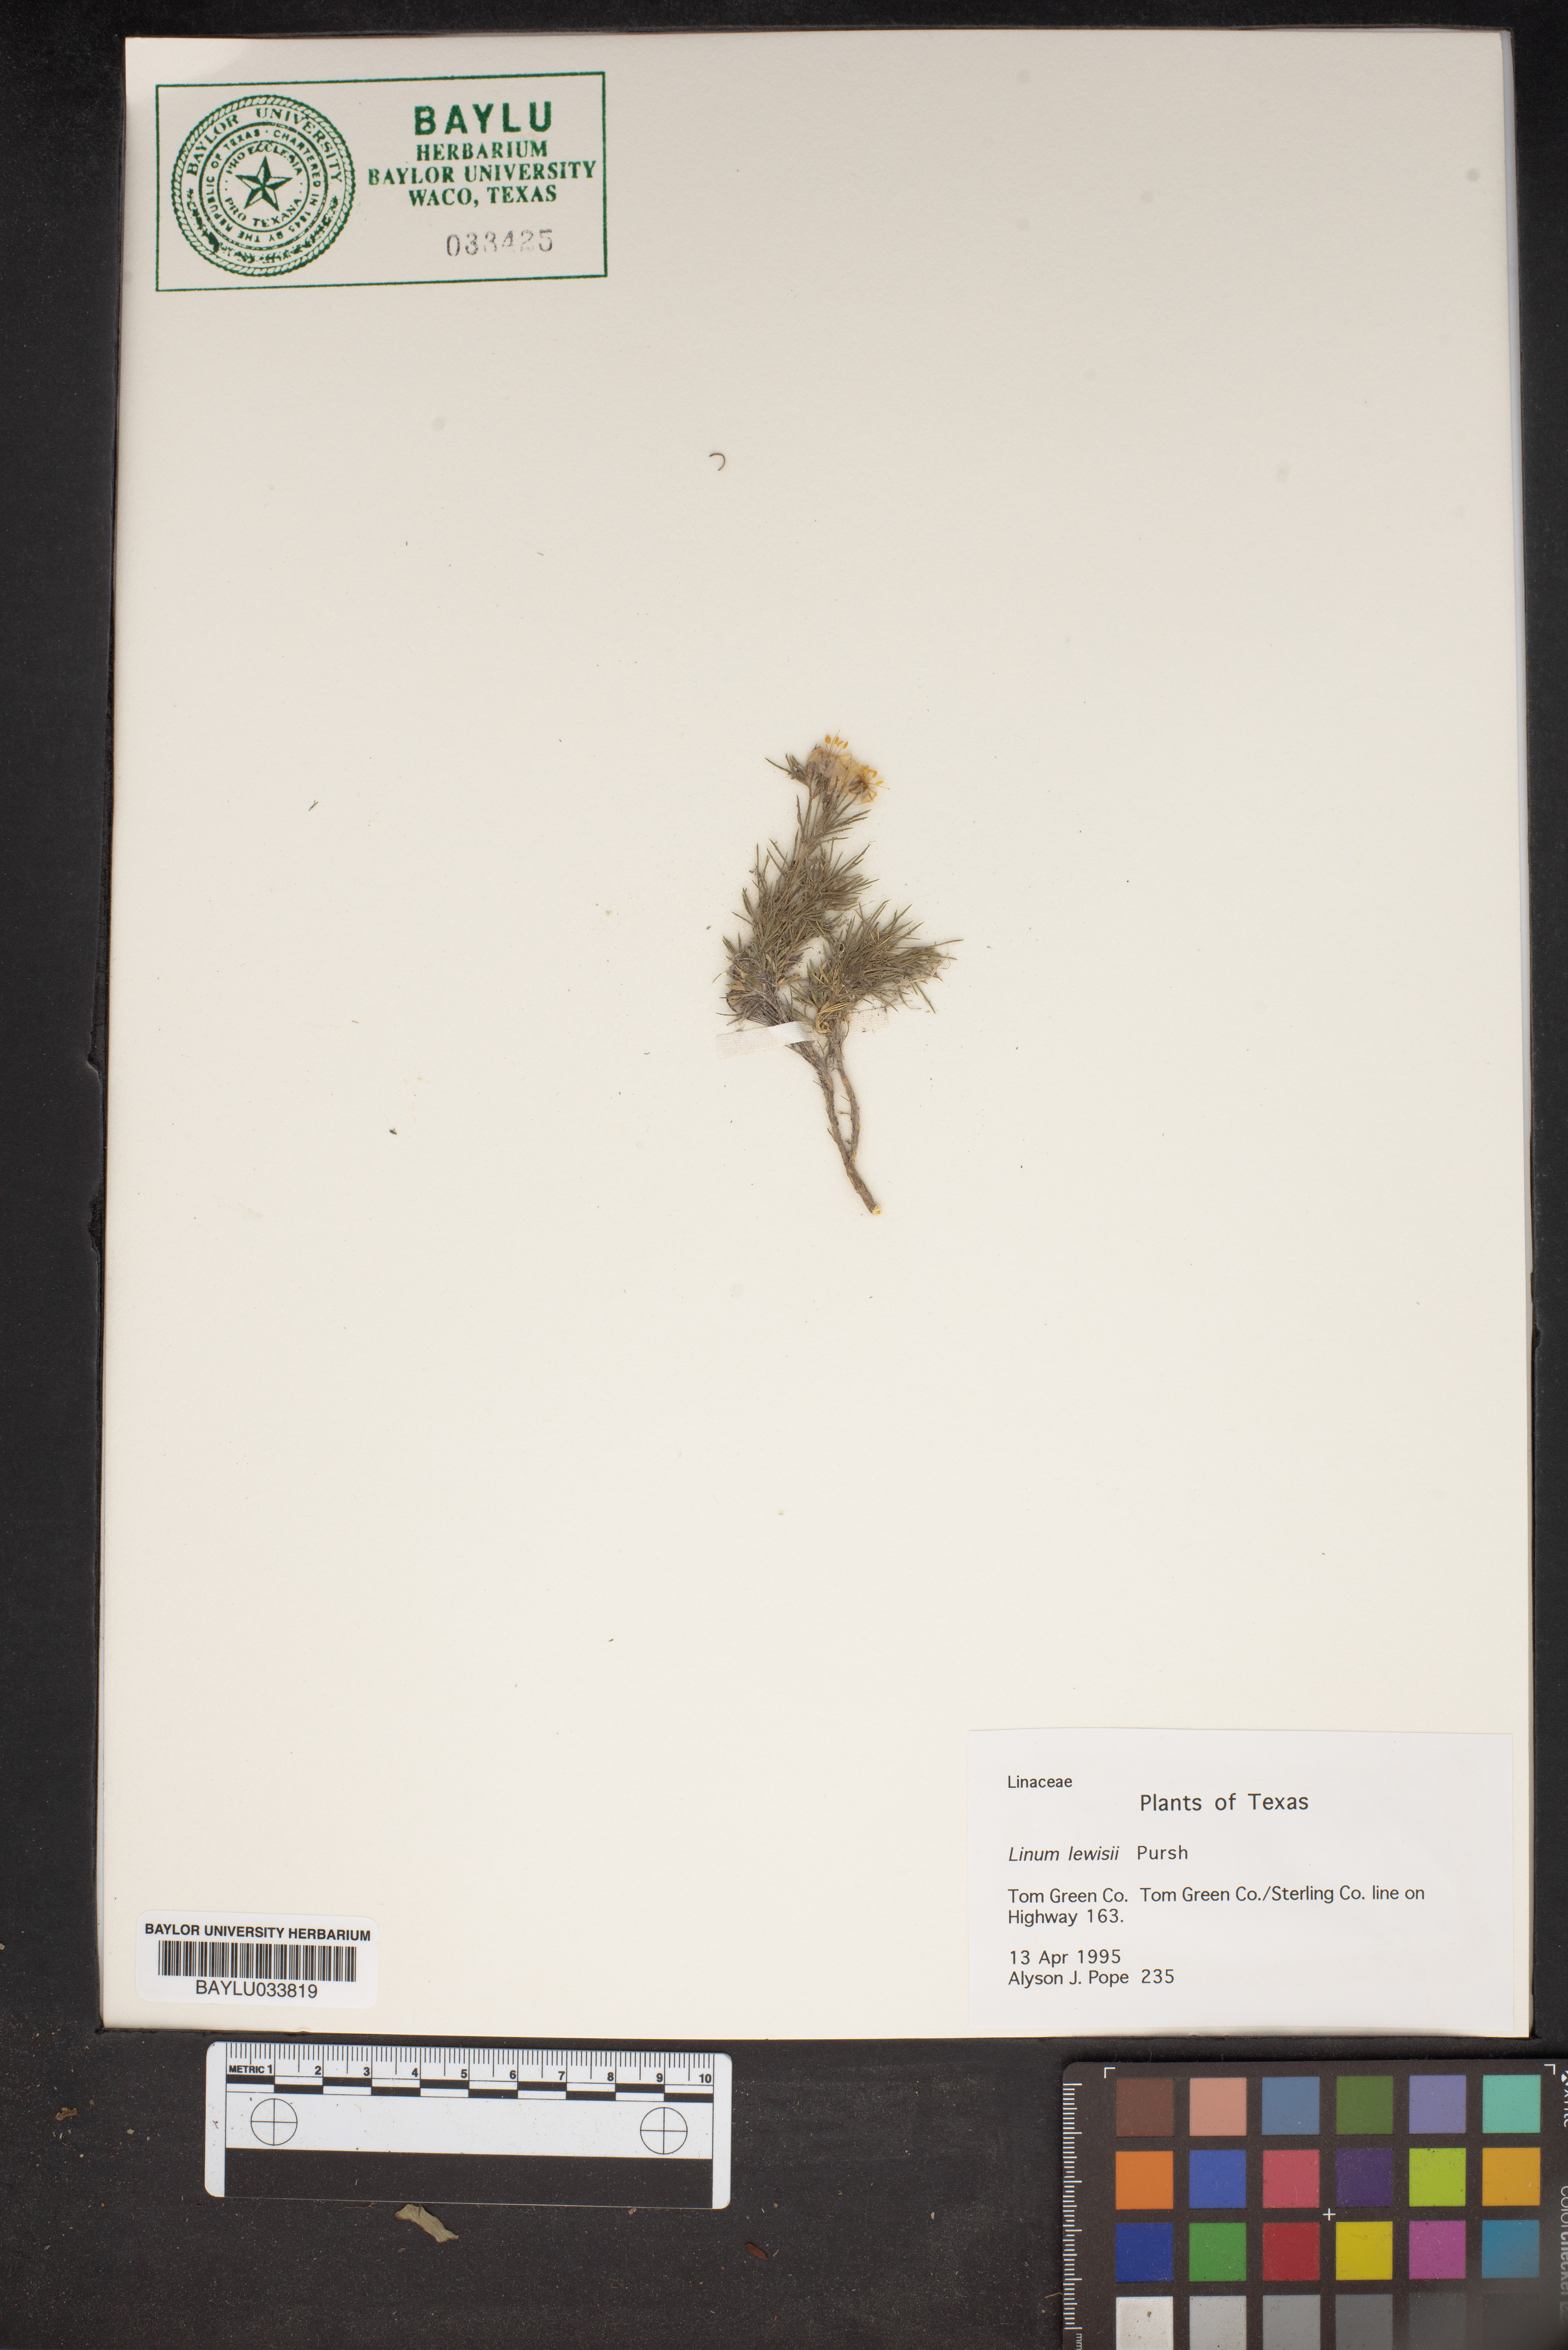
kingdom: Plantae
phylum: Tracheophyta
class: Magnoliopsida
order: Malpighiales
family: Linaceae
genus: Linum
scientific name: Linum lewisii
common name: Prairie flax
